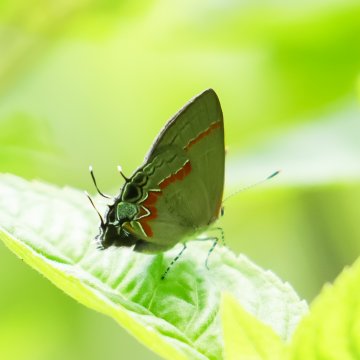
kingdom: Animalia
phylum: Arthropoda
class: Insecta
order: Lepidoptera
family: Lycaenidae
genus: Calycopis
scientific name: Calycopis cecrops
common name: Red-banded Hairstreak
